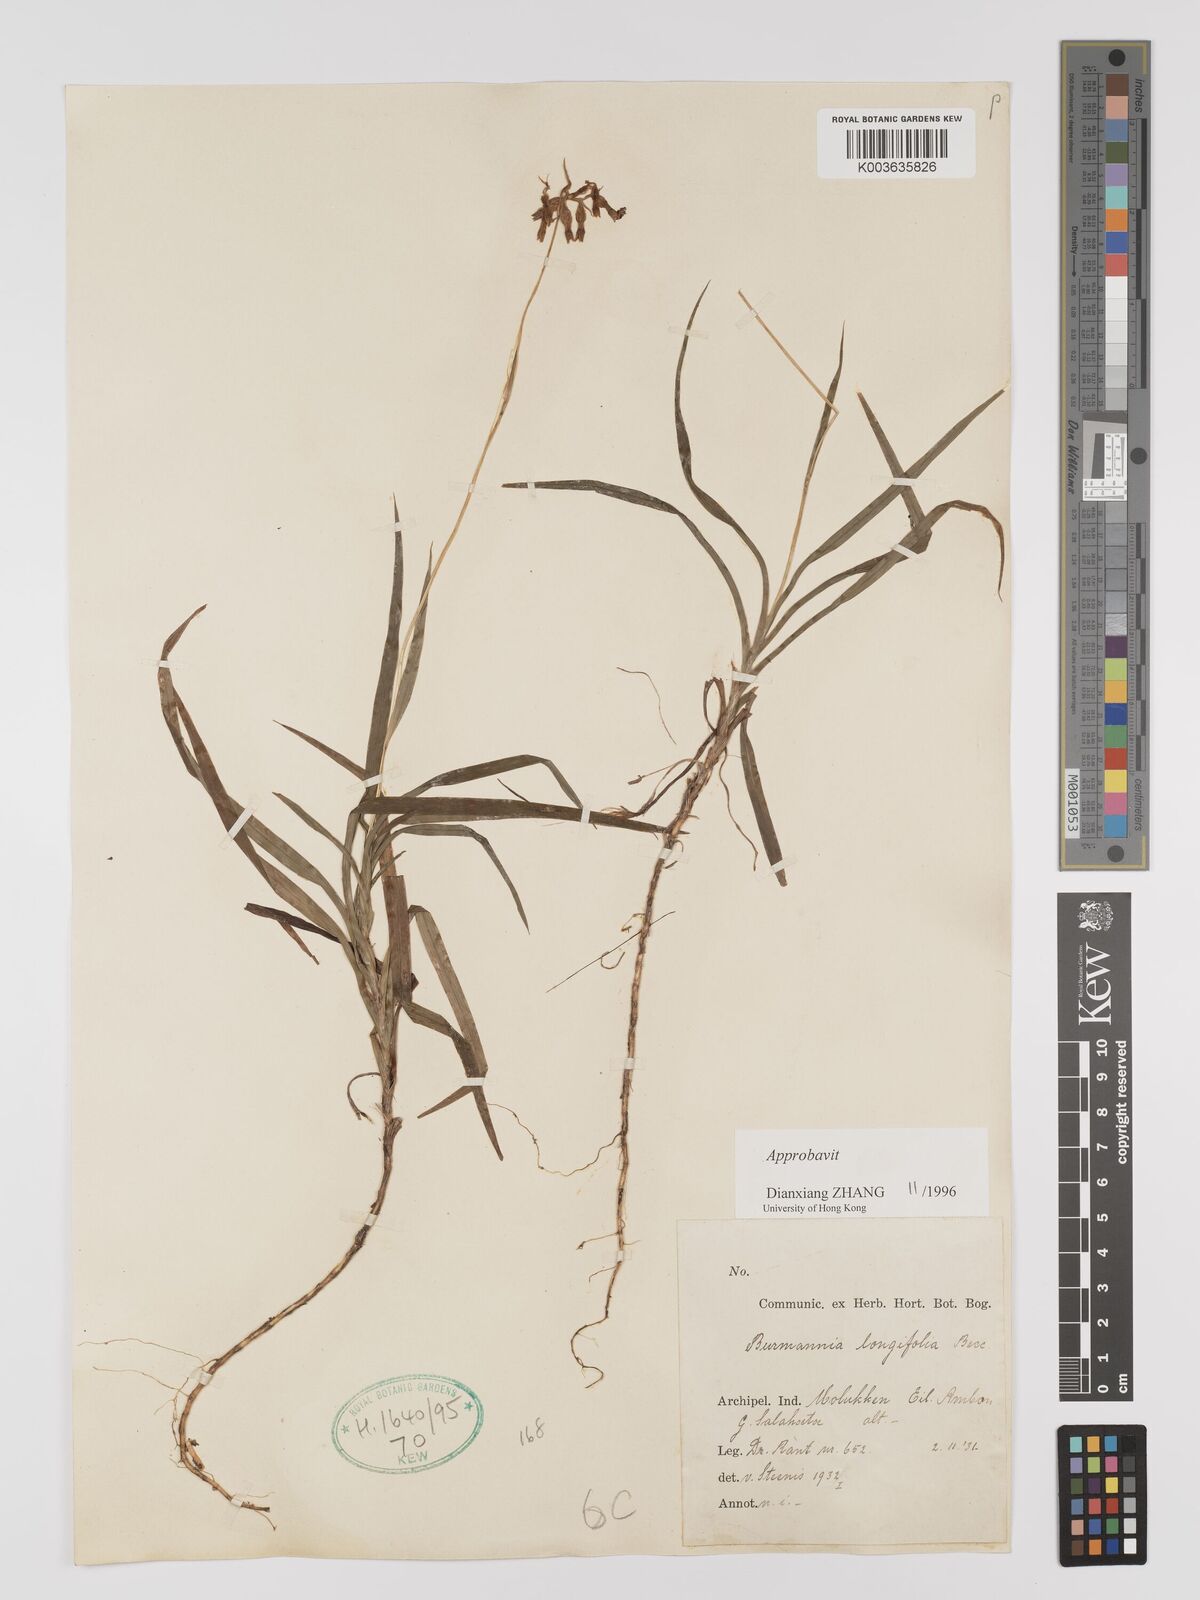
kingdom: Plantae
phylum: Tracheophyta
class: Liliopsida
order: Dioscoreales
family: Burmanniaceae
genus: Burmannia
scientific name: Burmannia longifolia
